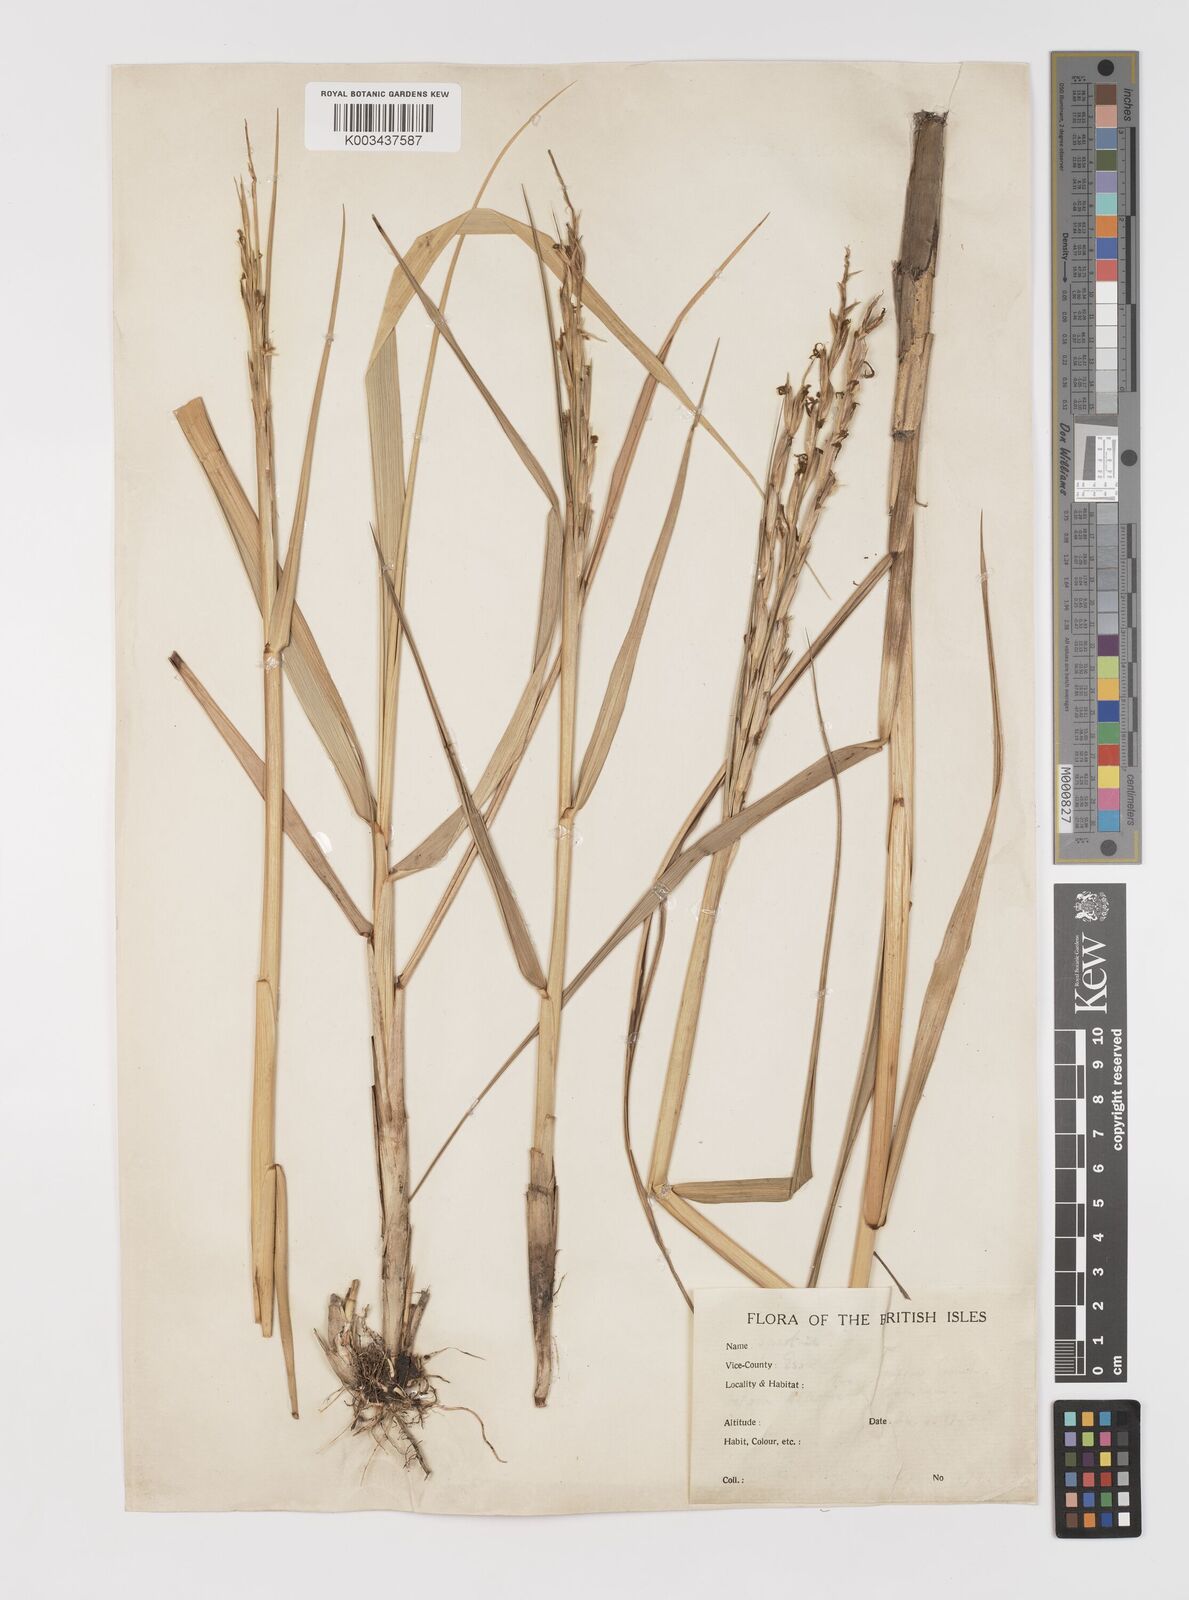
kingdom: Plantae
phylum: Tracheophyta
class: Liliopsida
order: Poales
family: Poaceae
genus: Sporobolus
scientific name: Sporobolus anglicus
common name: English cordgrass
